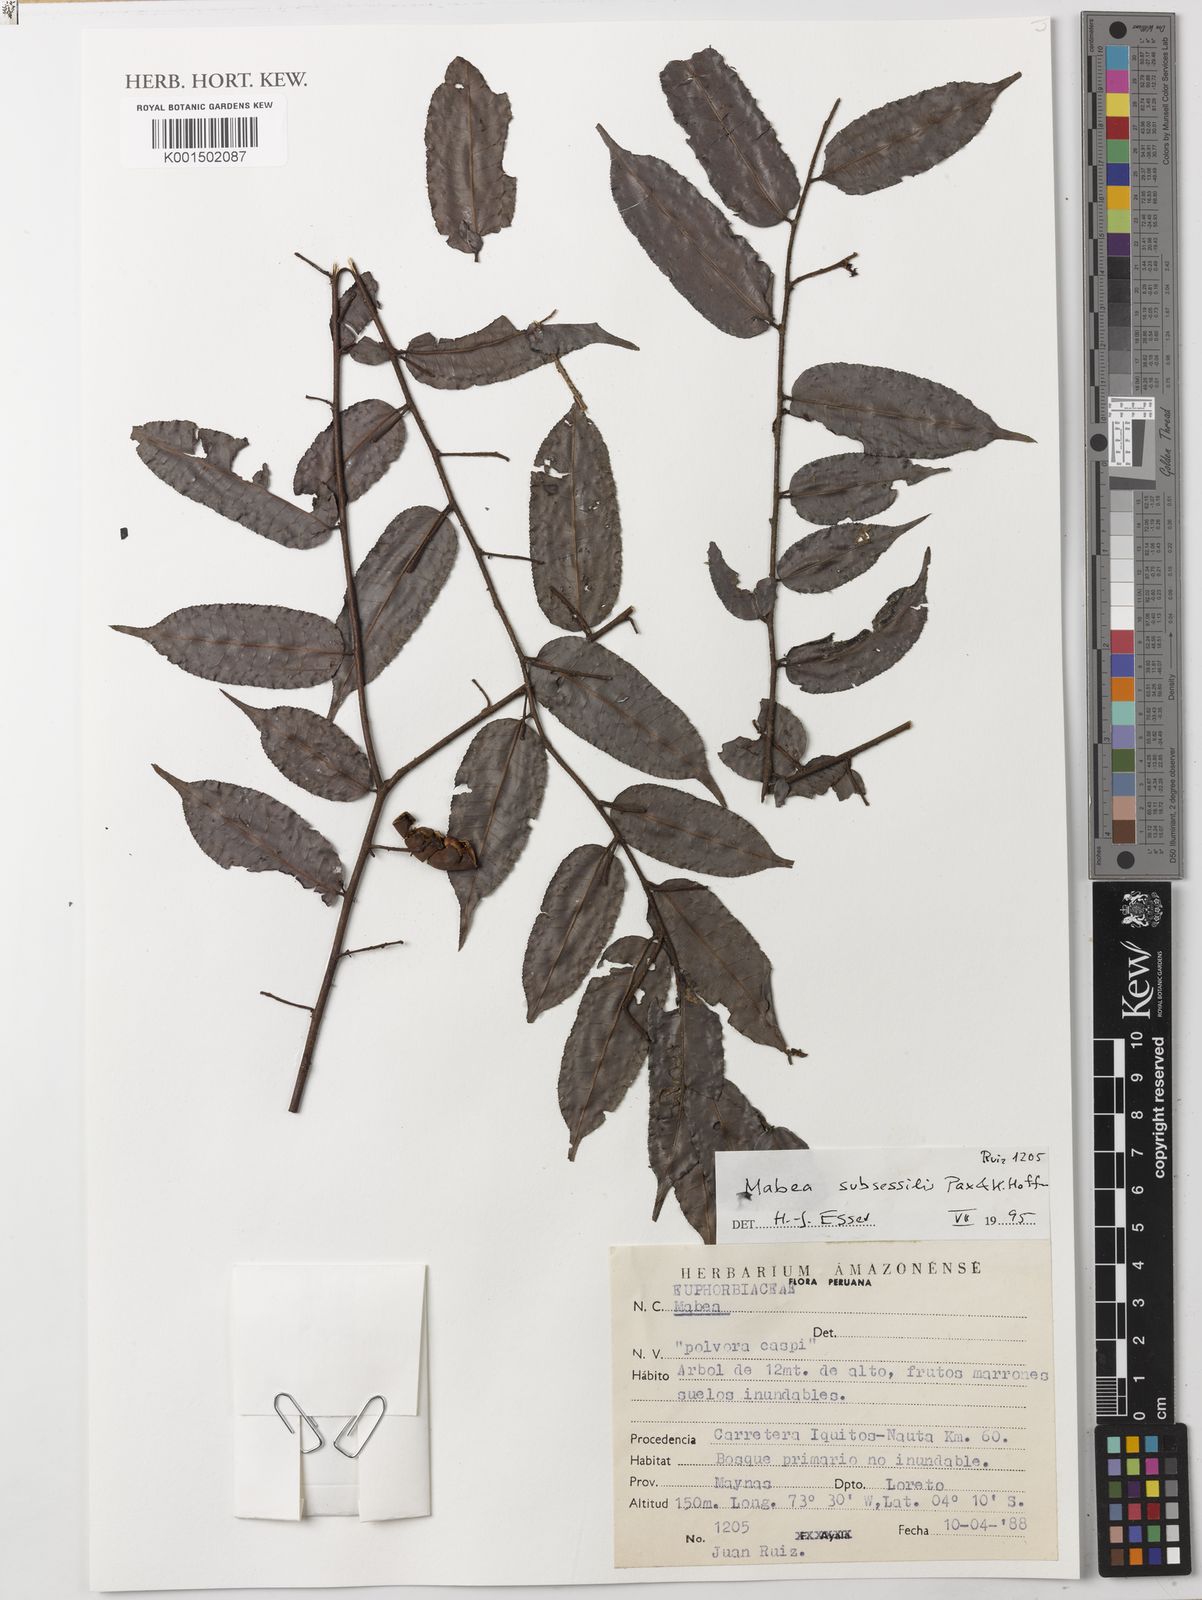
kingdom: Plantae
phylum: Tracheophyta
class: Magnoliopsida
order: Malpighiales
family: Euphorbiaceae
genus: Mabea
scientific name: Mabea subsessilis
